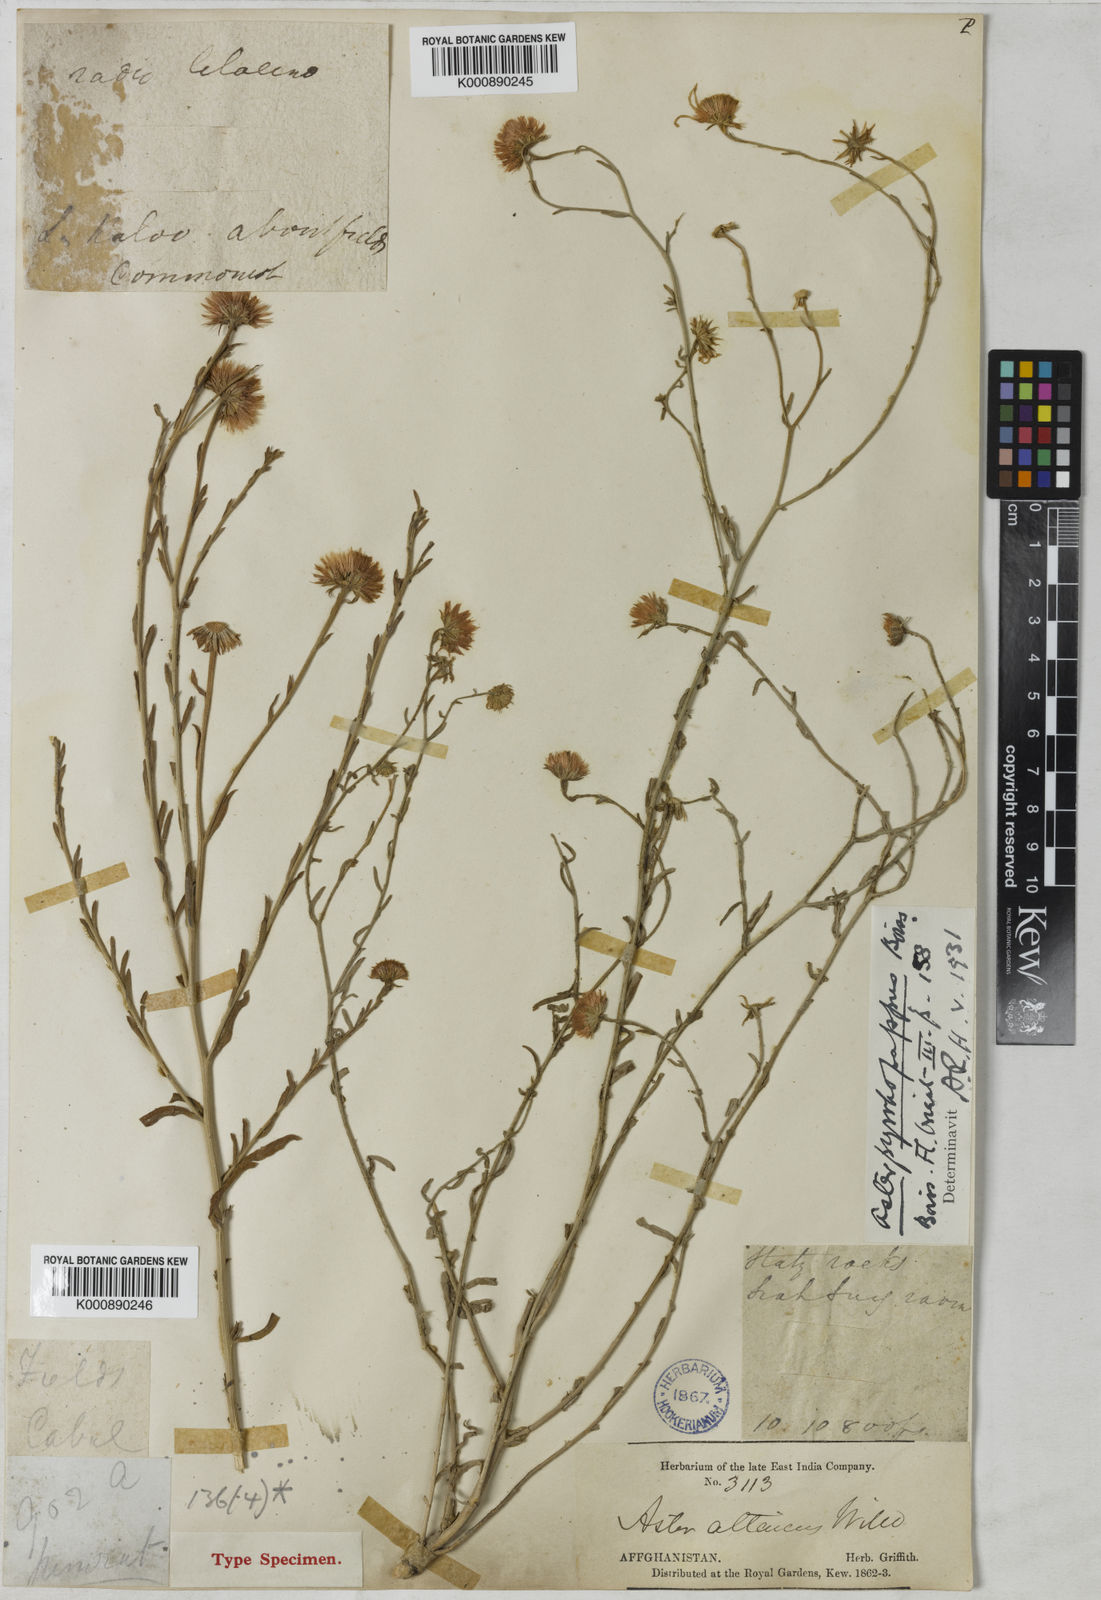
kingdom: Plantae
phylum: Tracheophyta
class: Magnoliopsida
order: Asterales
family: Asteraceae
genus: Aster
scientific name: Aster
